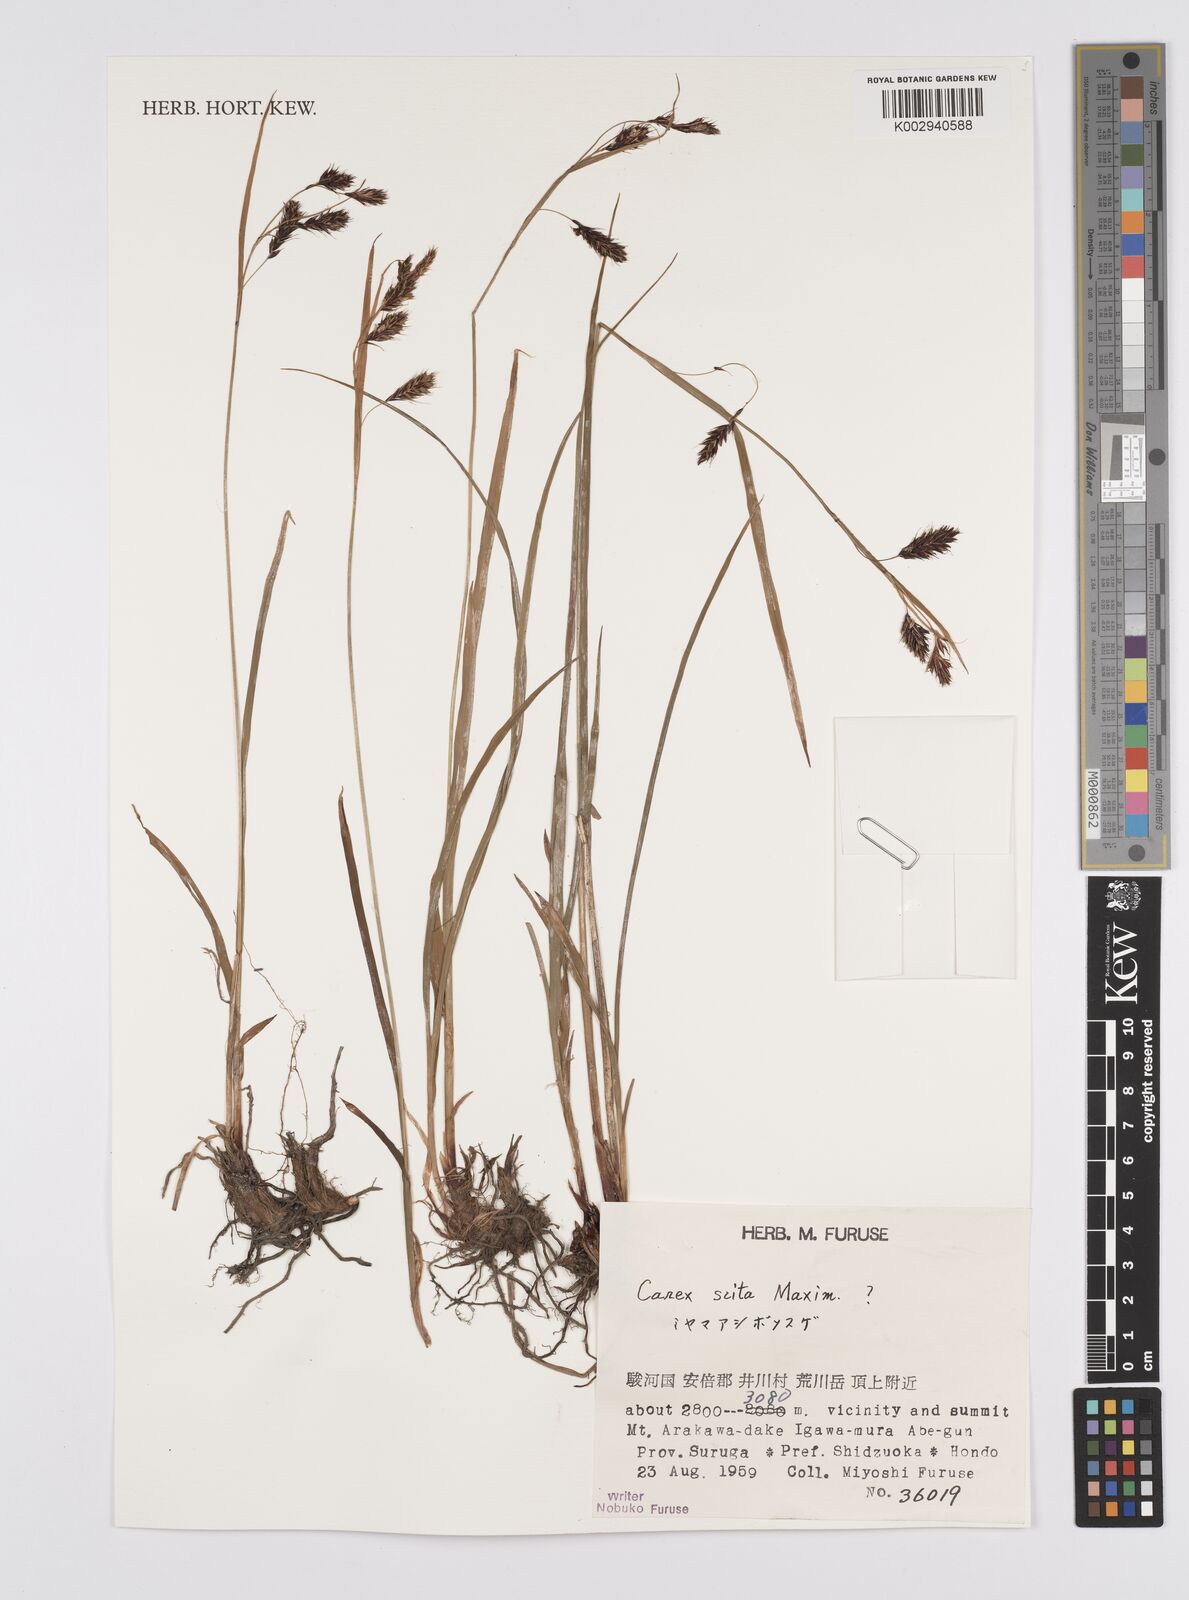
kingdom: Plantae
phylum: Tracheophyta
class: Liliopsida
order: Poales
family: Cyperaceae
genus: Carex
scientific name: Carex scita
